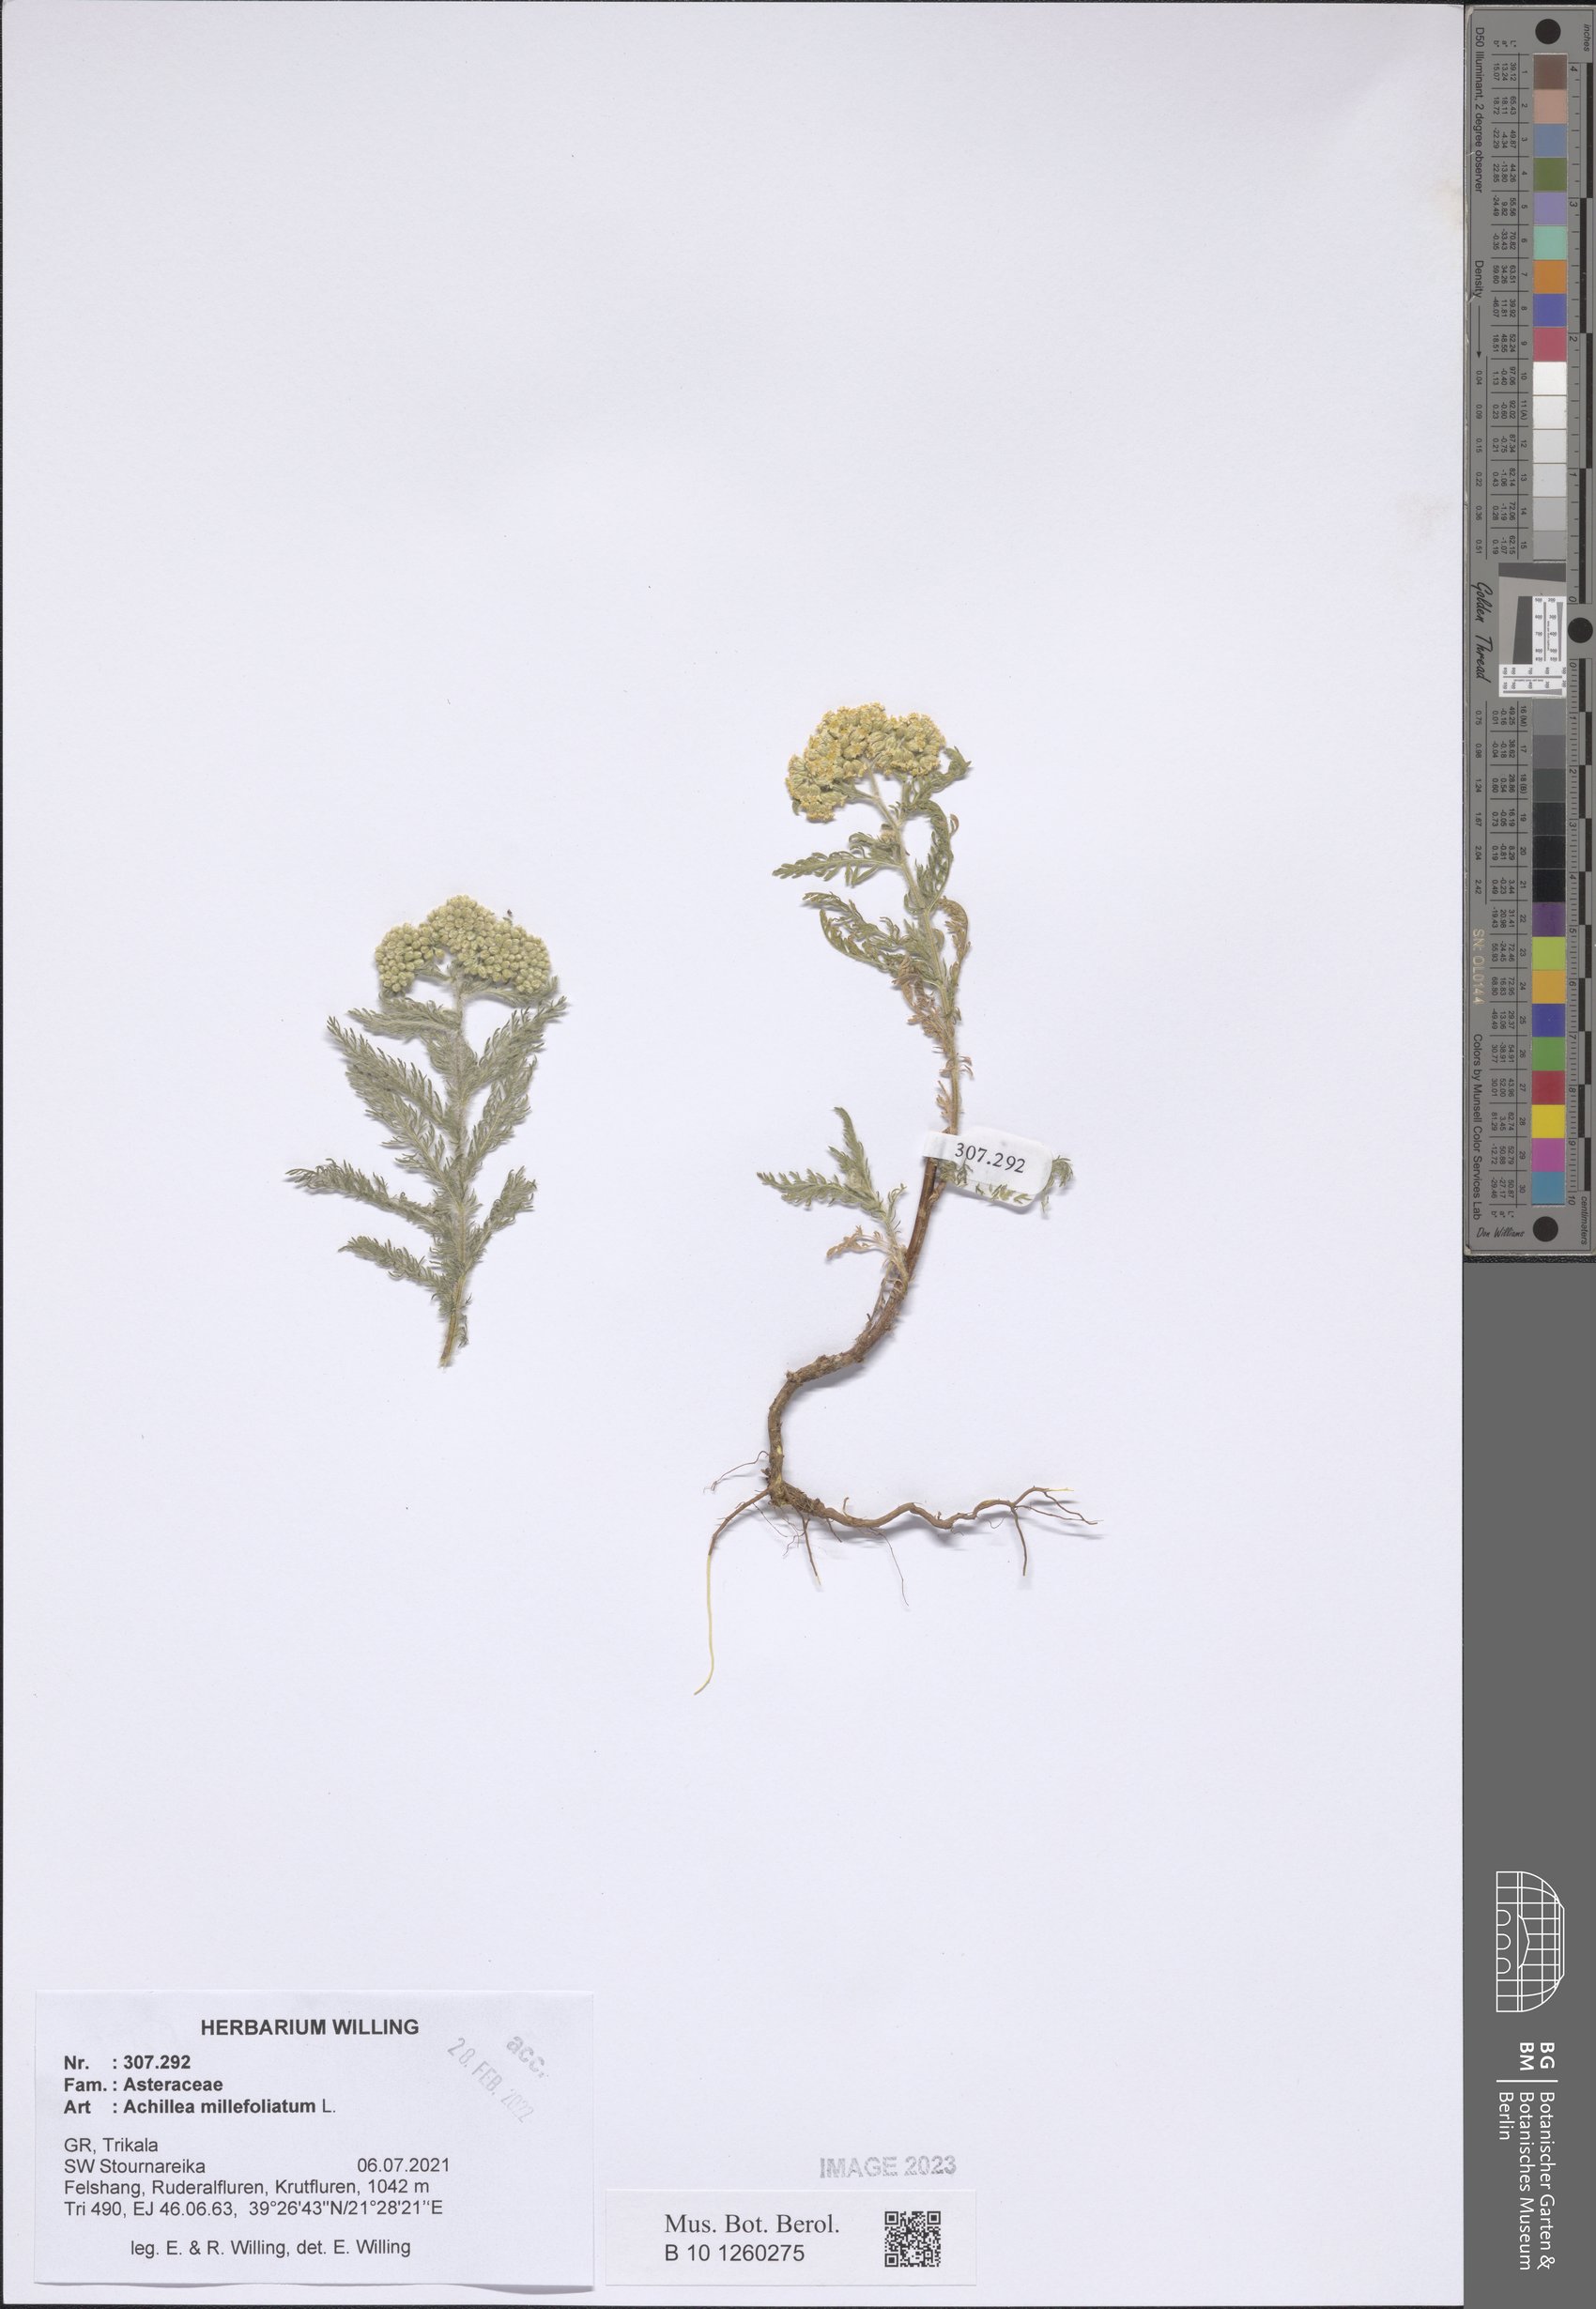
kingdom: Plantae
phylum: Tracheophyta
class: Magnoliopsida
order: Asterales
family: Asteraceae
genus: Achillea
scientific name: Achillea millefolium
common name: Yarrow
